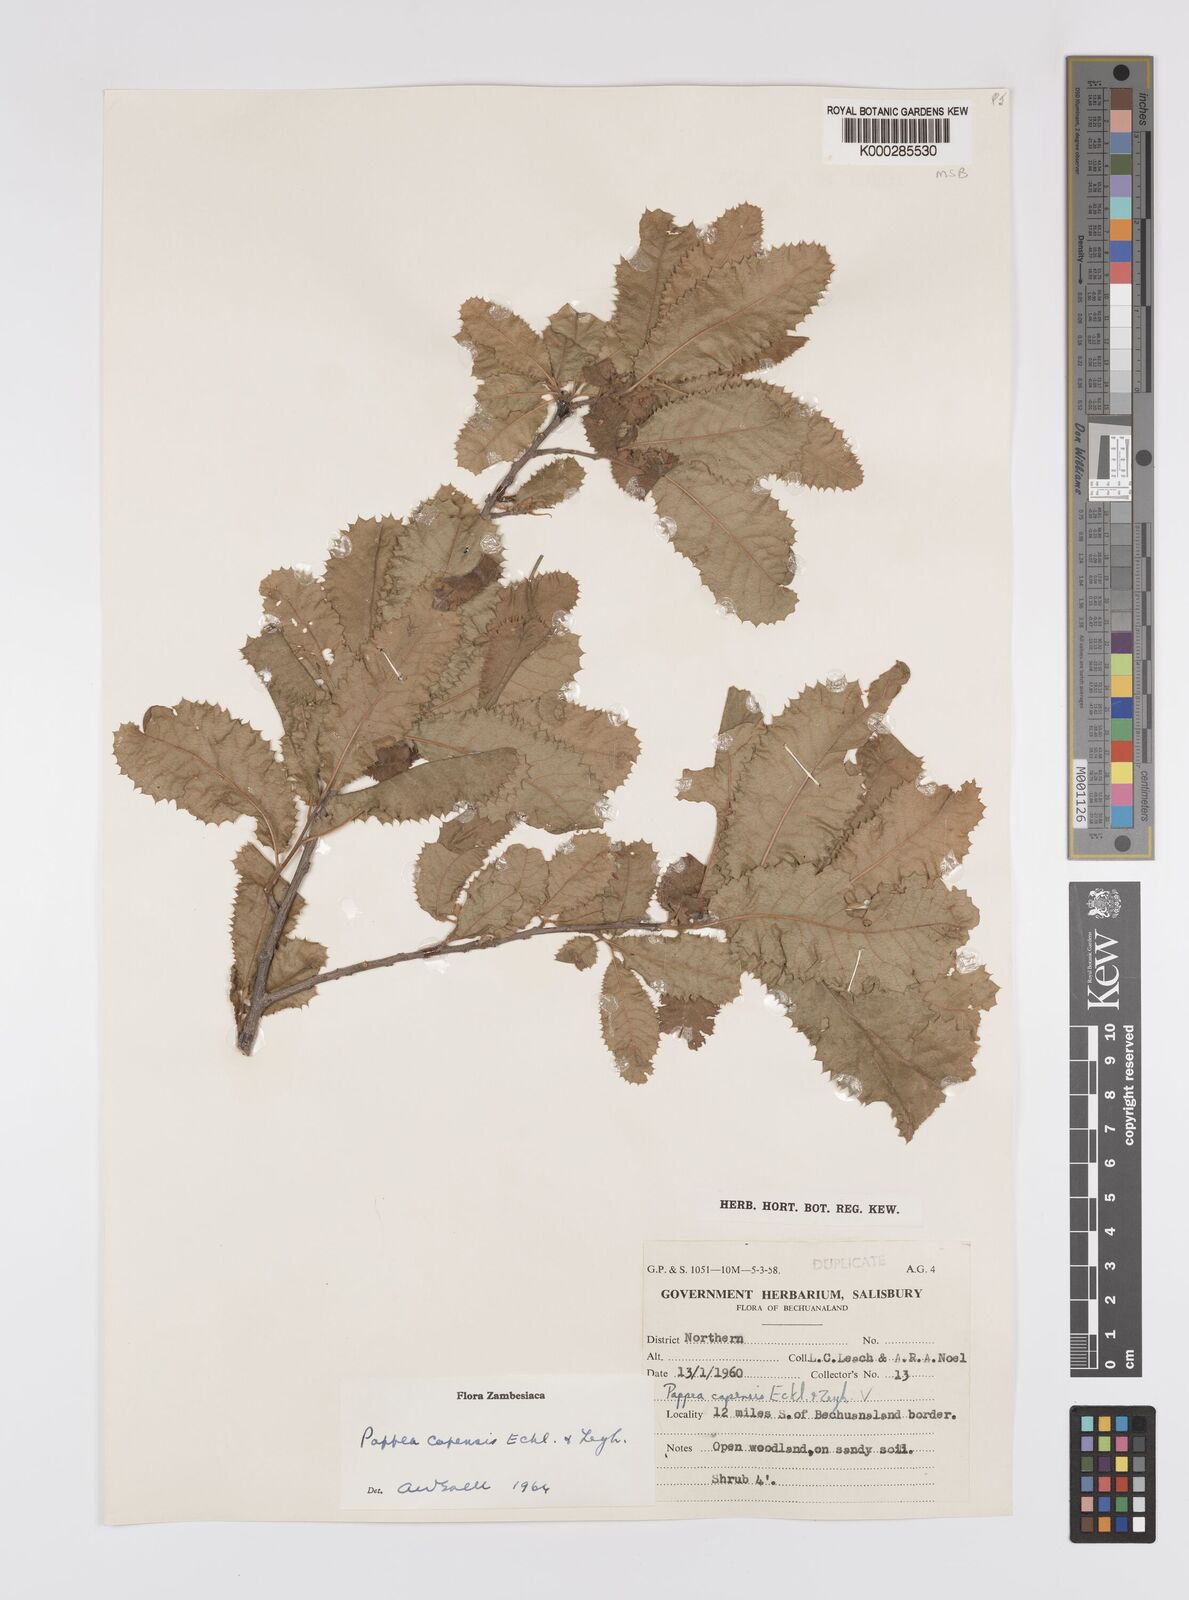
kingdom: Plantae
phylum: Tracheophyta
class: Magnoliopsida
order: Sapindales
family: Sapindaceae
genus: Pappea
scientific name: Pappea capensis
